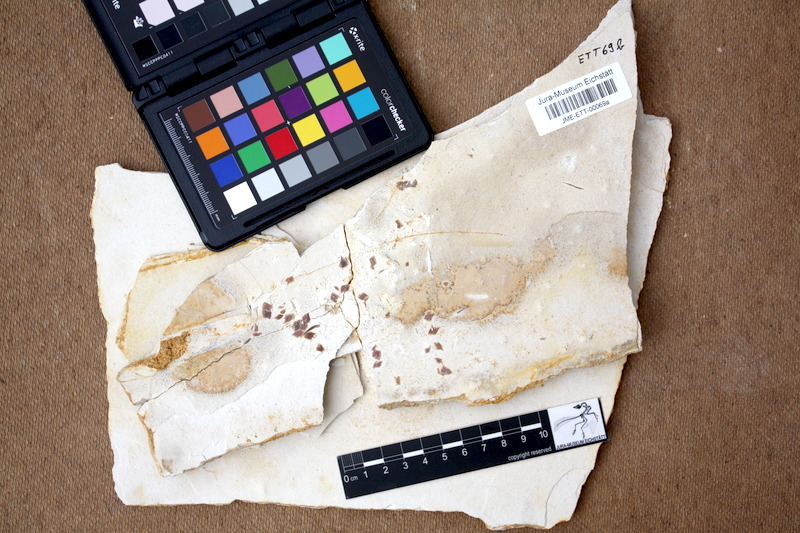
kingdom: Animalia
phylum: Chordata
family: Callipurbeckiidae
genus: Macrosemimimus
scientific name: Macrosemimimus fegerti
